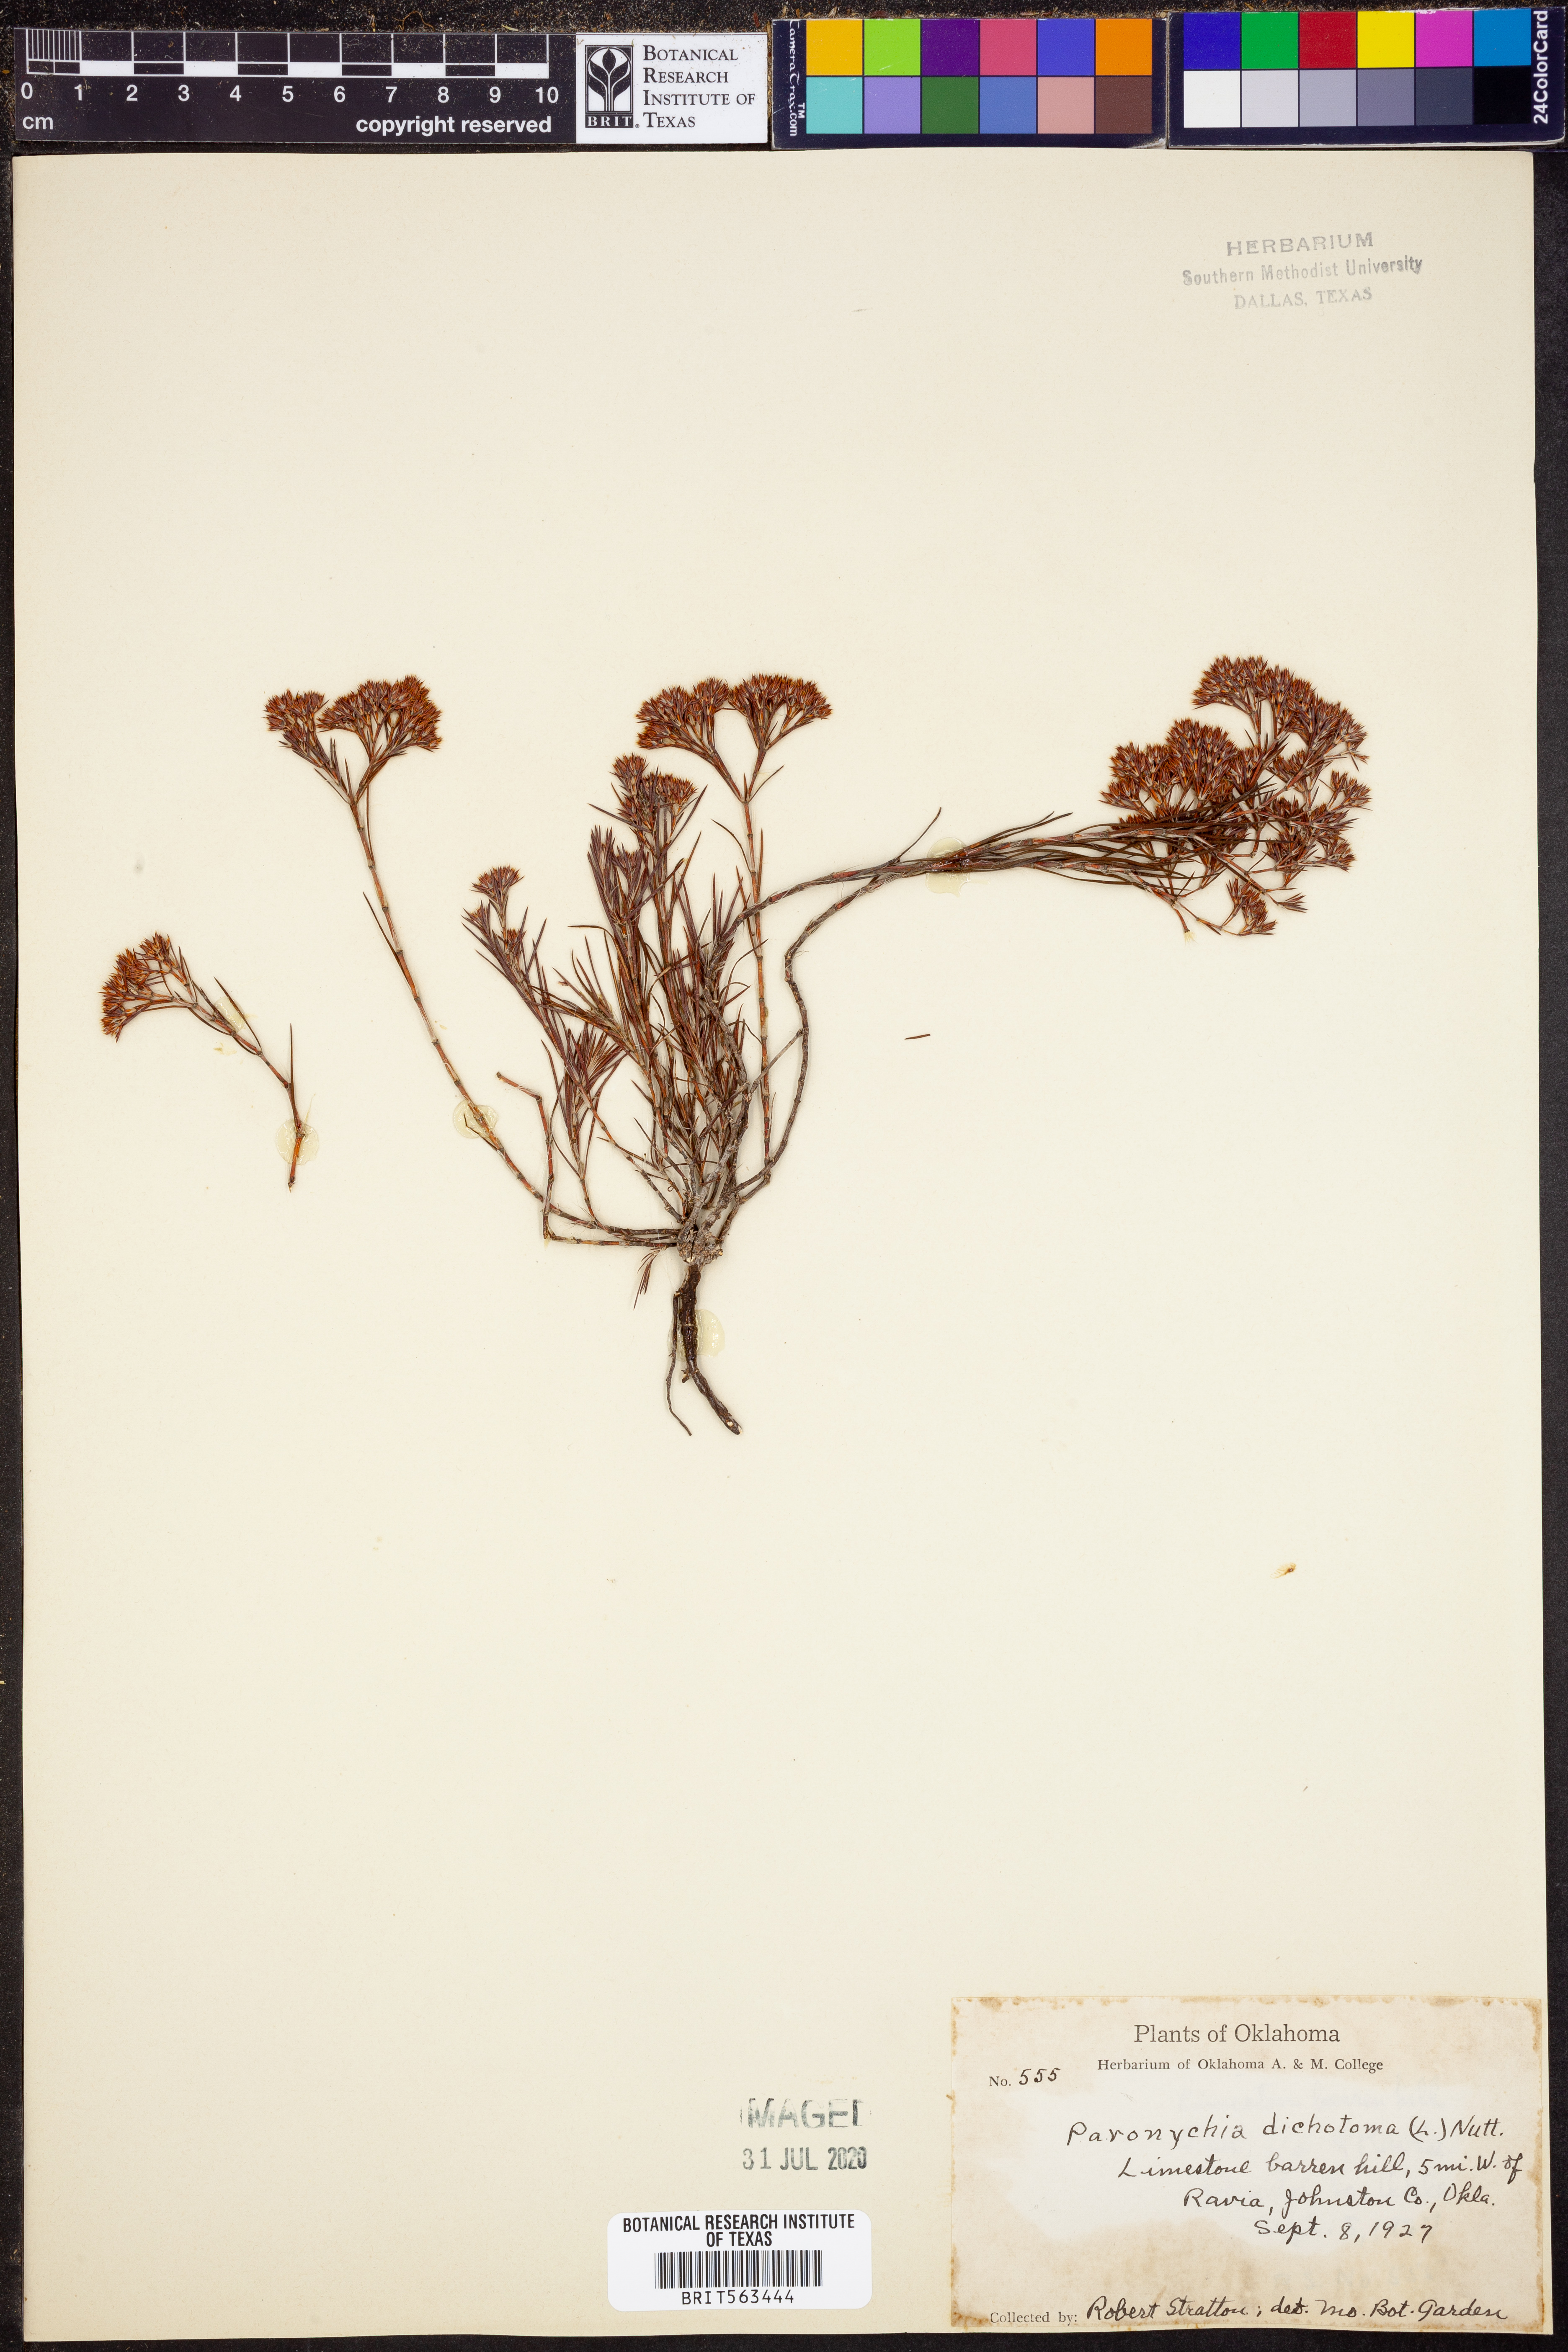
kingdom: Plantae
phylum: Tracheophyta
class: Magnoliopsida
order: Caryophyllales
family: Caryophyllaceae
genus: Paronychia
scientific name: Paronychia canadensis
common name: Canada forked nailwort
